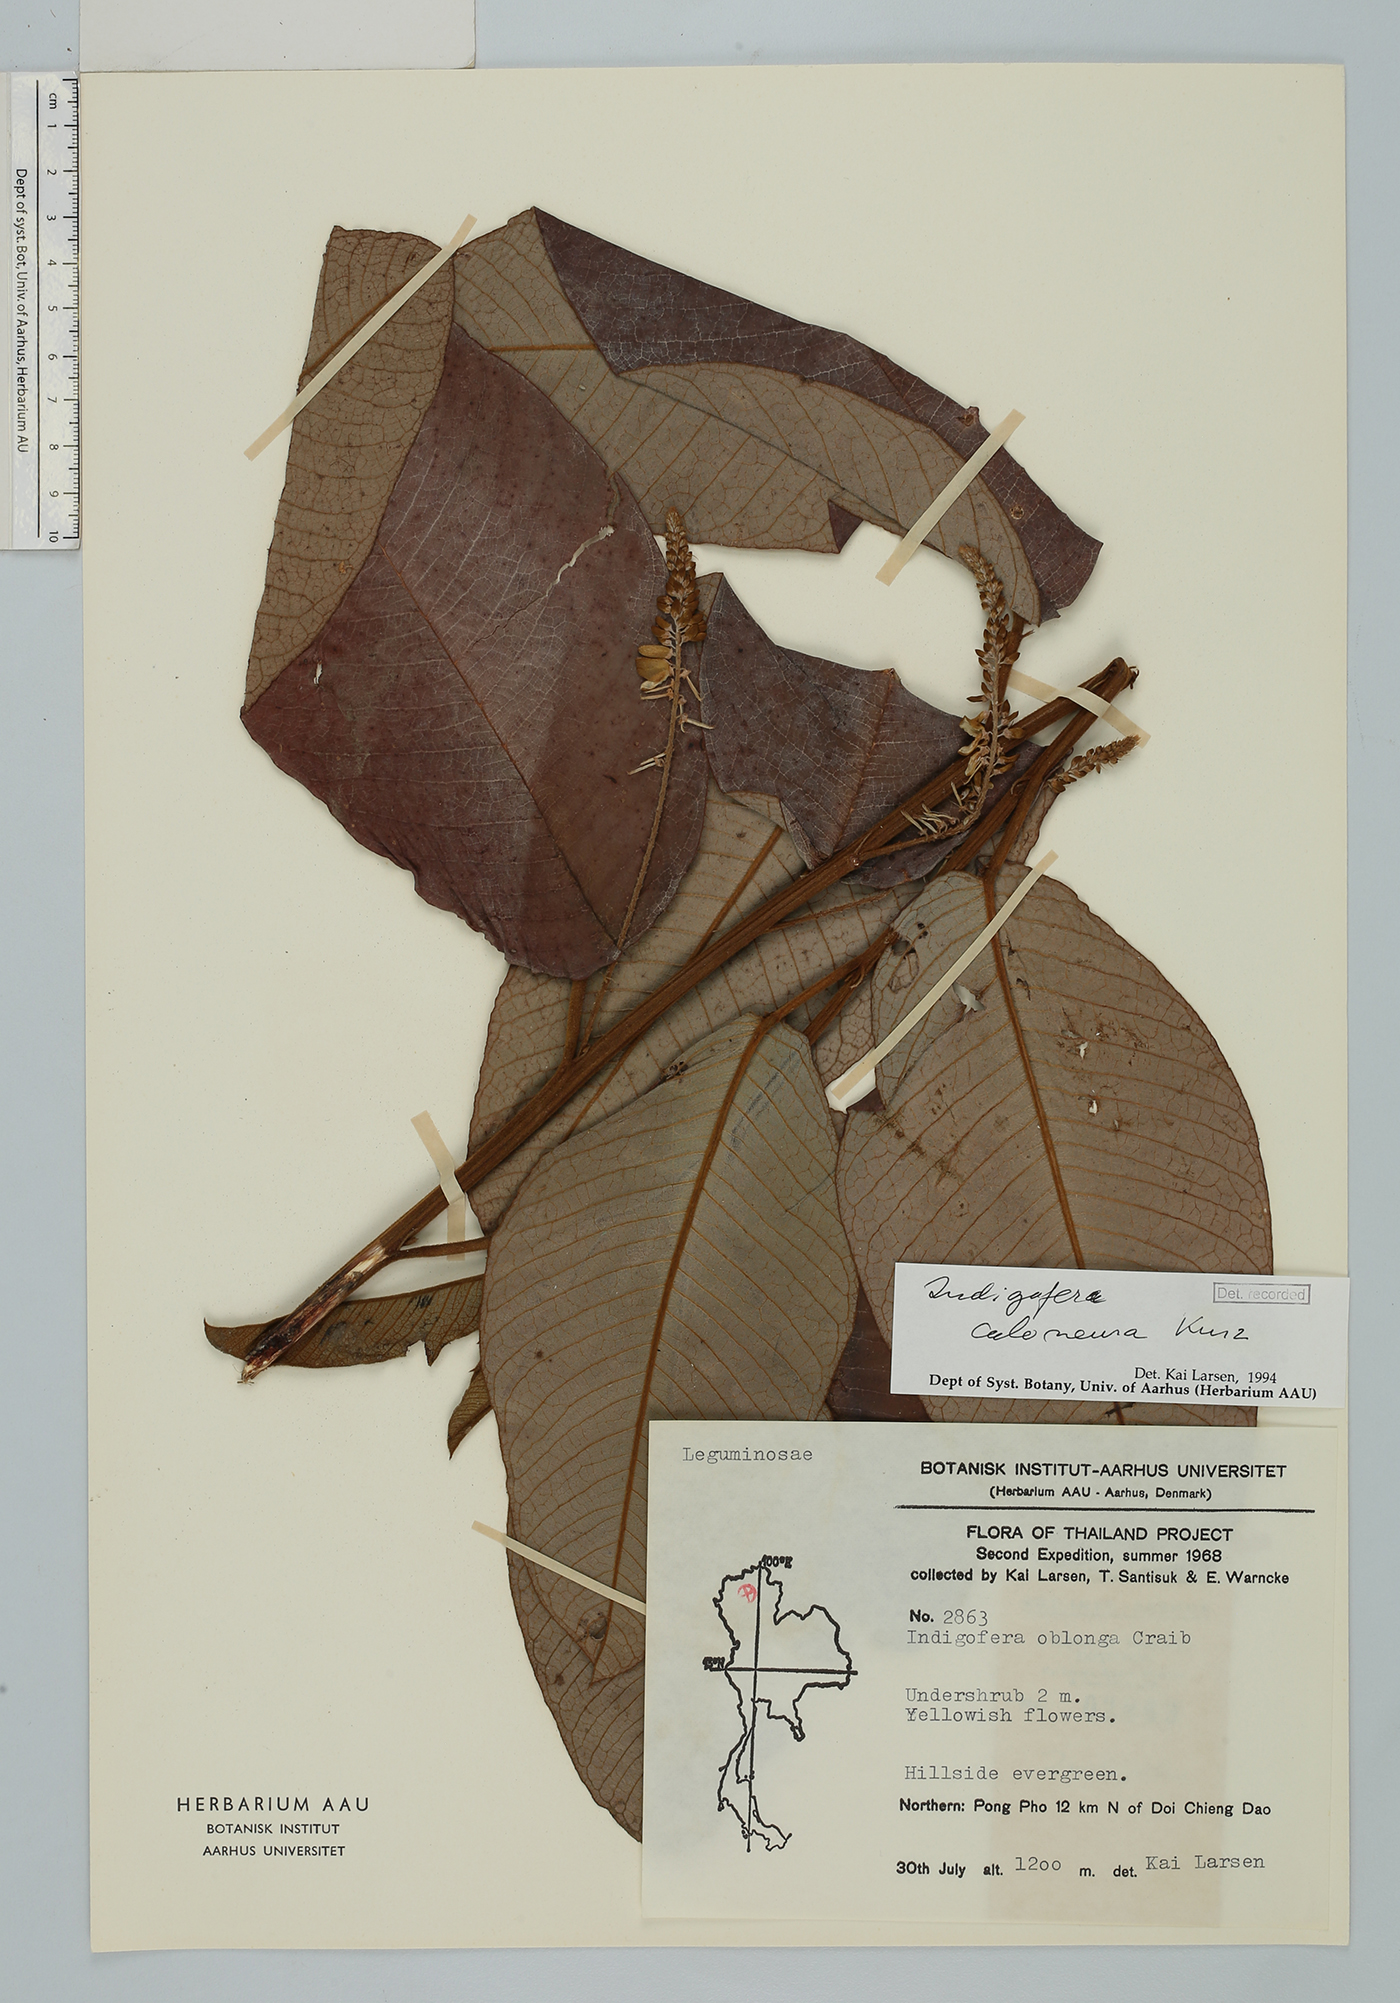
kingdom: Plantae
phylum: Tracheophyta
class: Magnoliopsida
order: Fabales
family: Fabaceae
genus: Indigofera
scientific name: Indigofera caloneura
